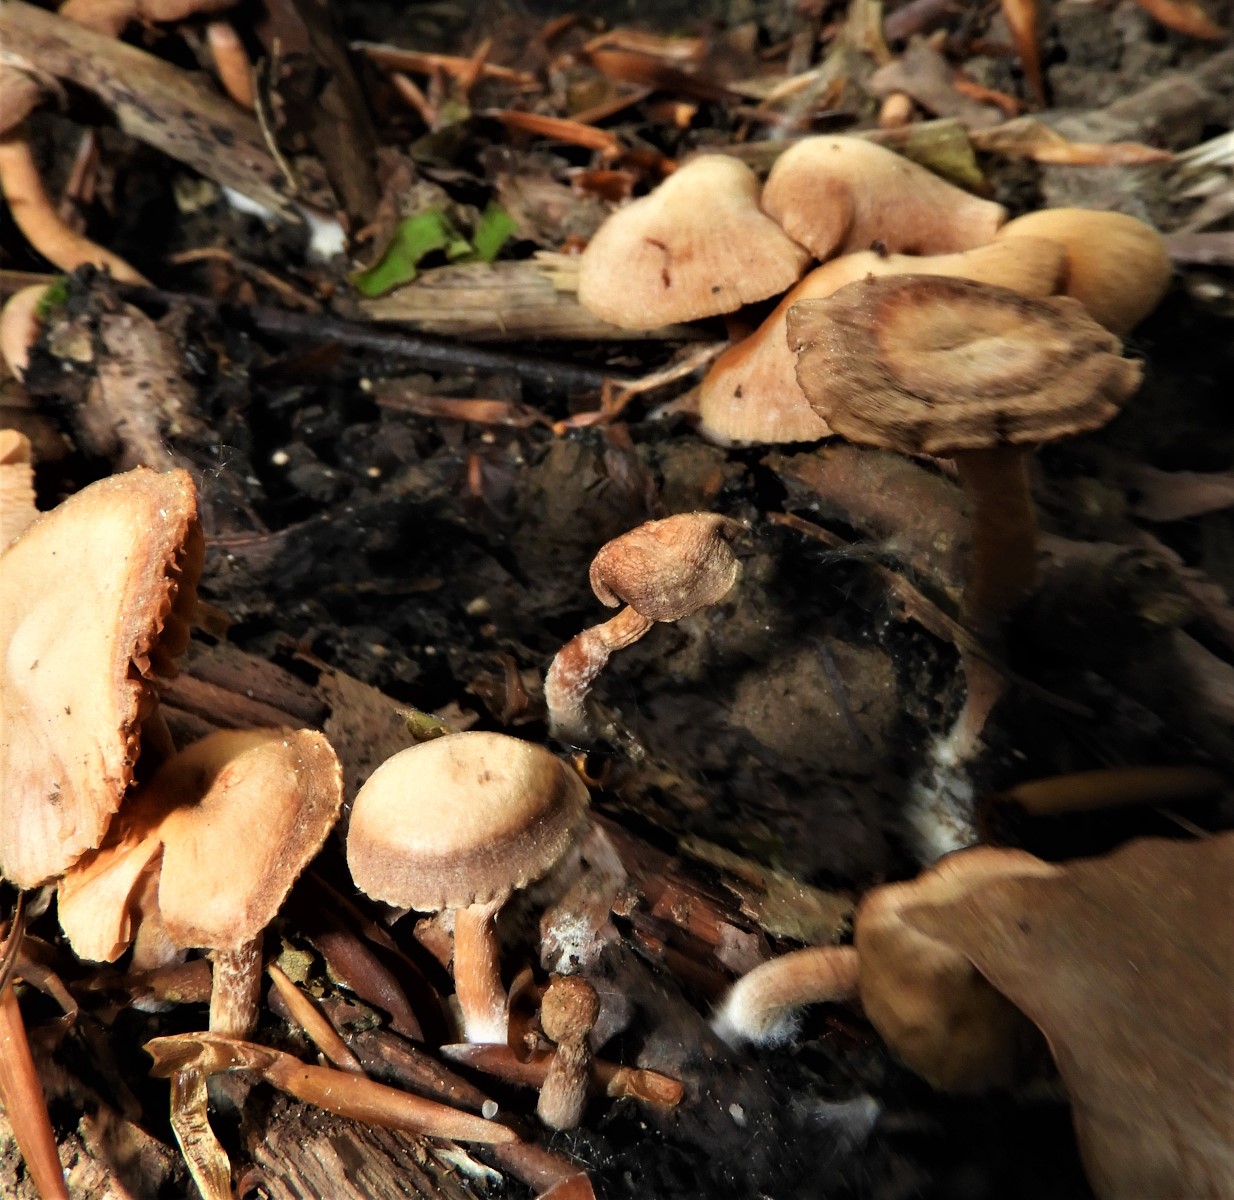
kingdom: Fungi
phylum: Basidiomycota
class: Agaricomycetes
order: Agaricales
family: Tubariaceae
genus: Tubaria
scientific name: Tubaria furfuracea
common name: kliddet fnughat
